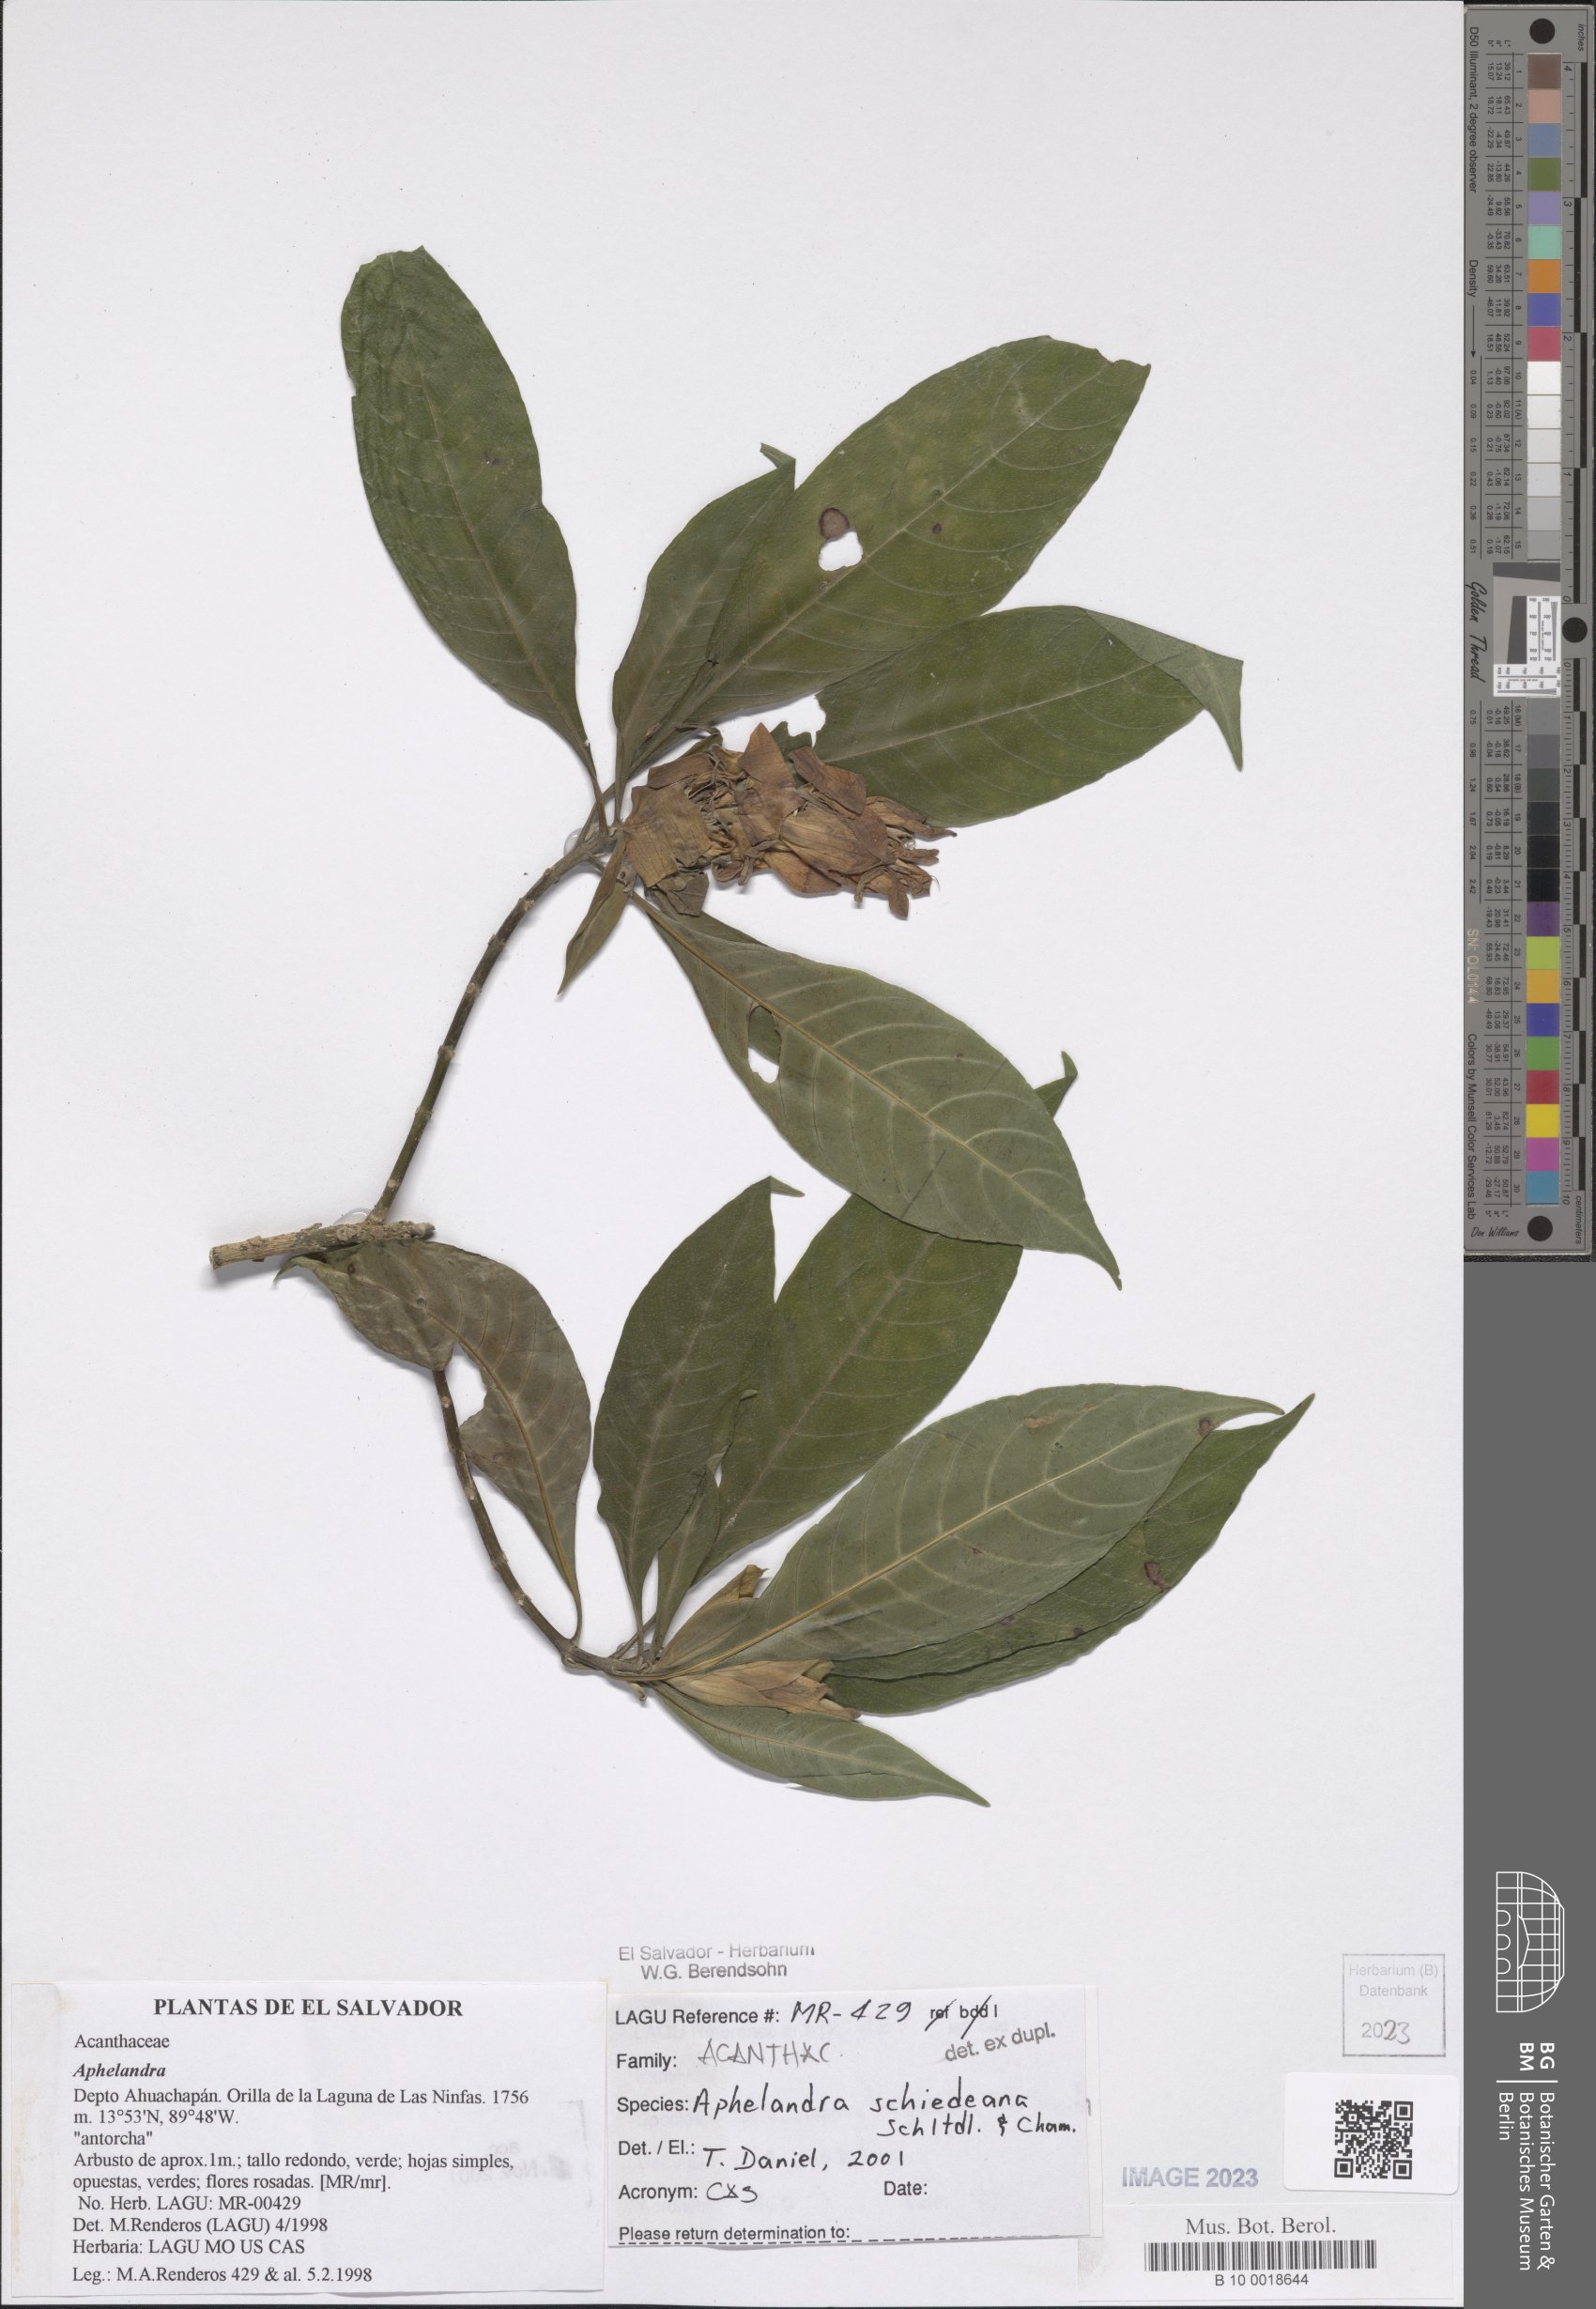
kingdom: Plantae
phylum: Tracheophyta
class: Magnoliopsida
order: Lamiales
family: Acanthaceae
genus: Aphelandra
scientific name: Aphelandra schiedeana
